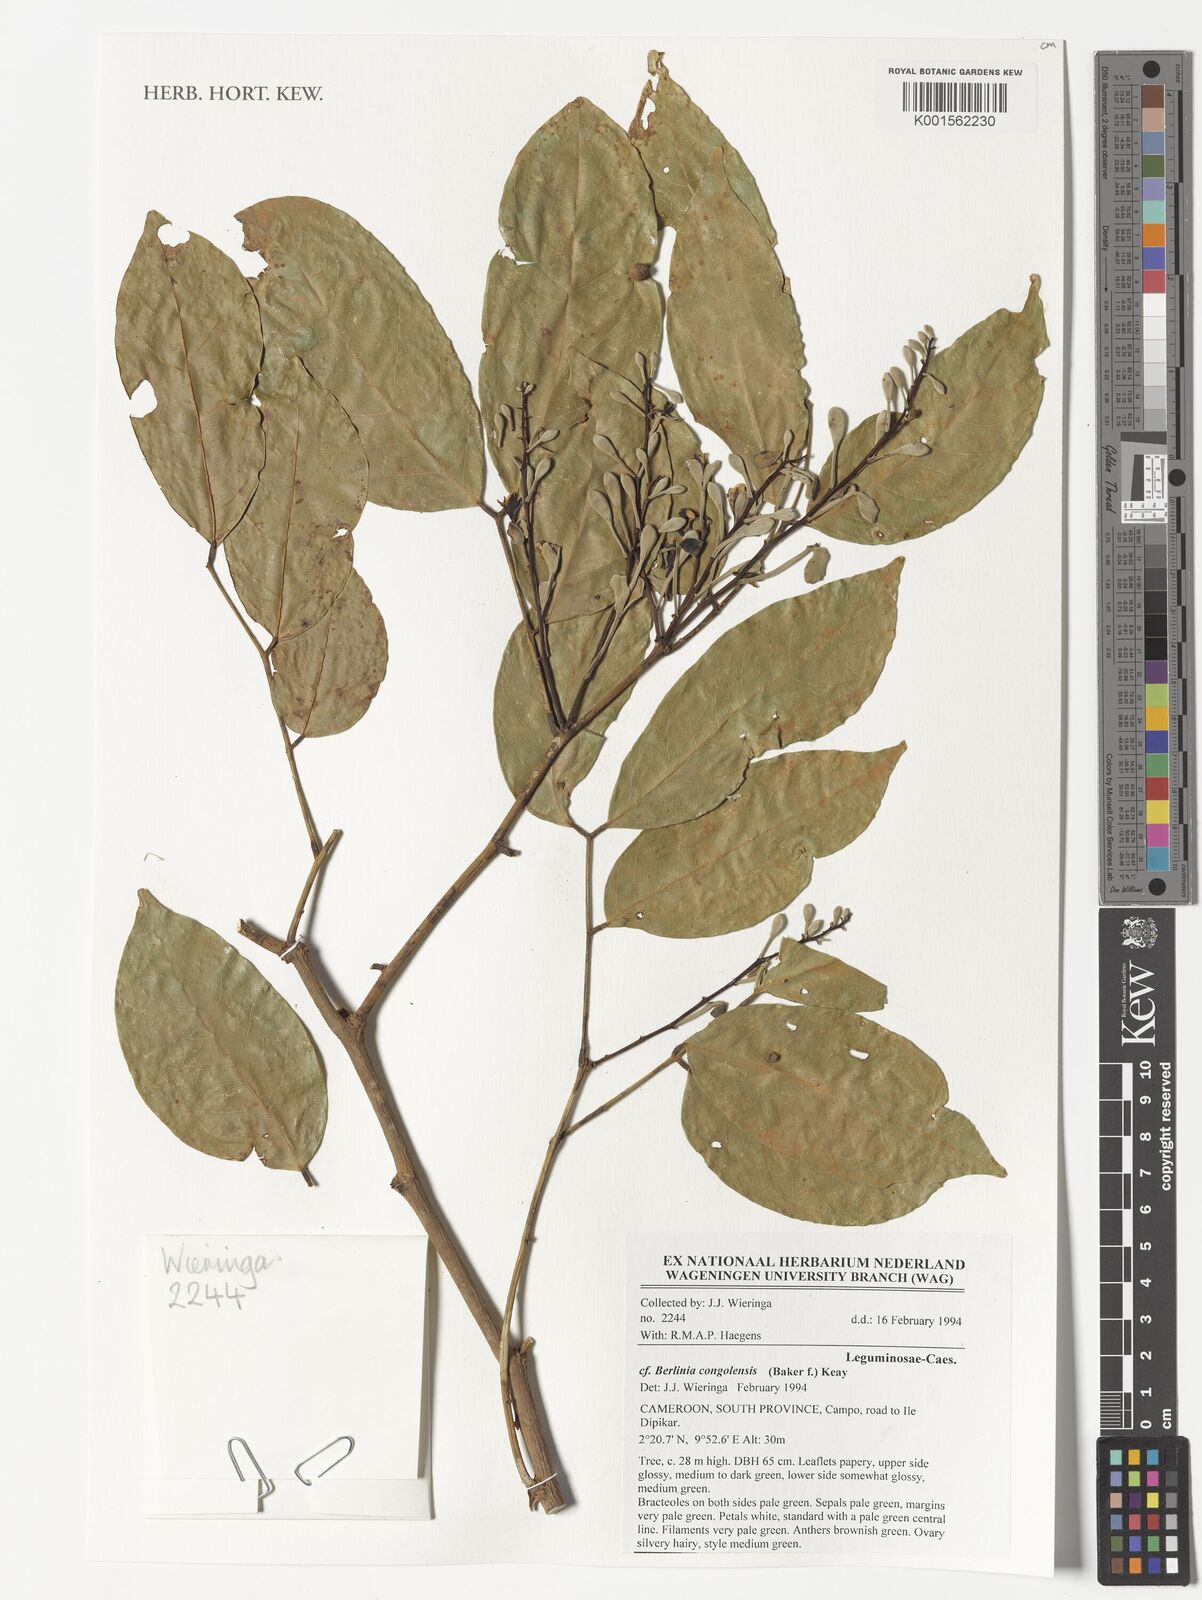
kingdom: Plantae
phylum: Tracheophyta
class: Magnoliopsida
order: Fabales
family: Fabaceae
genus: Berlinia
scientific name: Berlinia congolensis
